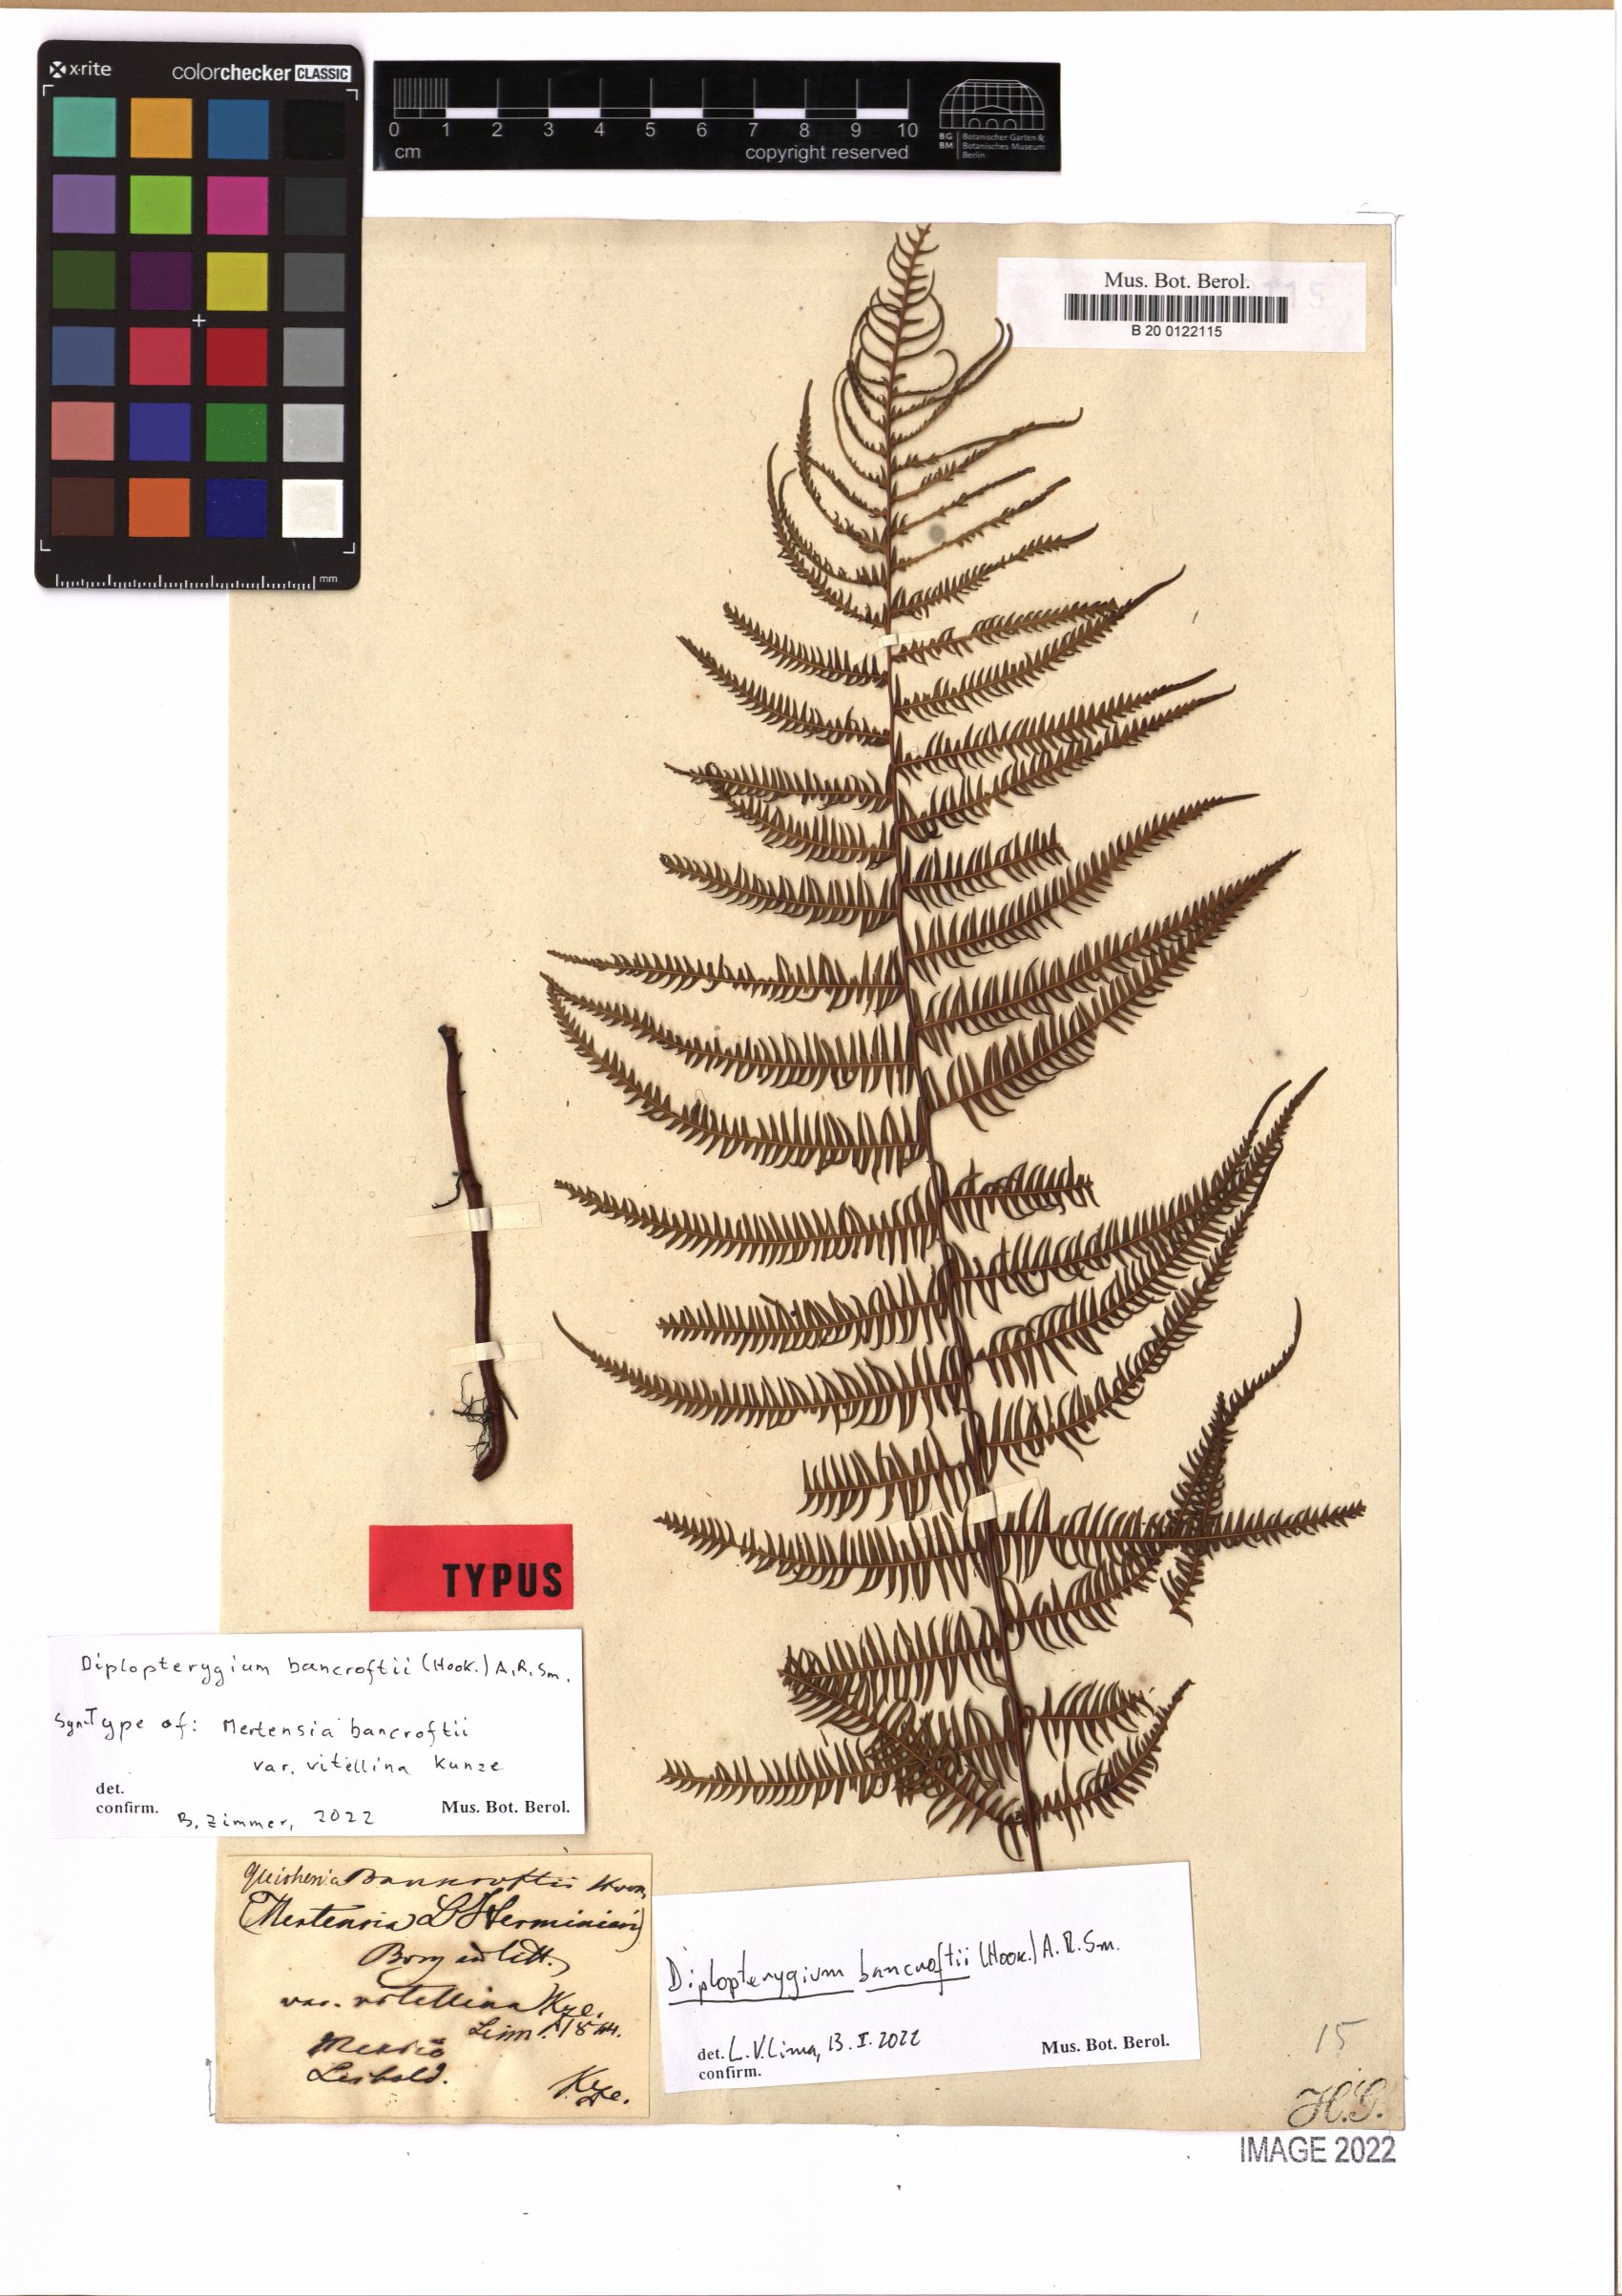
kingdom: Plantae
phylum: Tracheophyta
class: Polypodiopsida
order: Gleicheniales
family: Gleicheniaceae
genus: Diplopterygium
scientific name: Diplopterygium bancroftii
